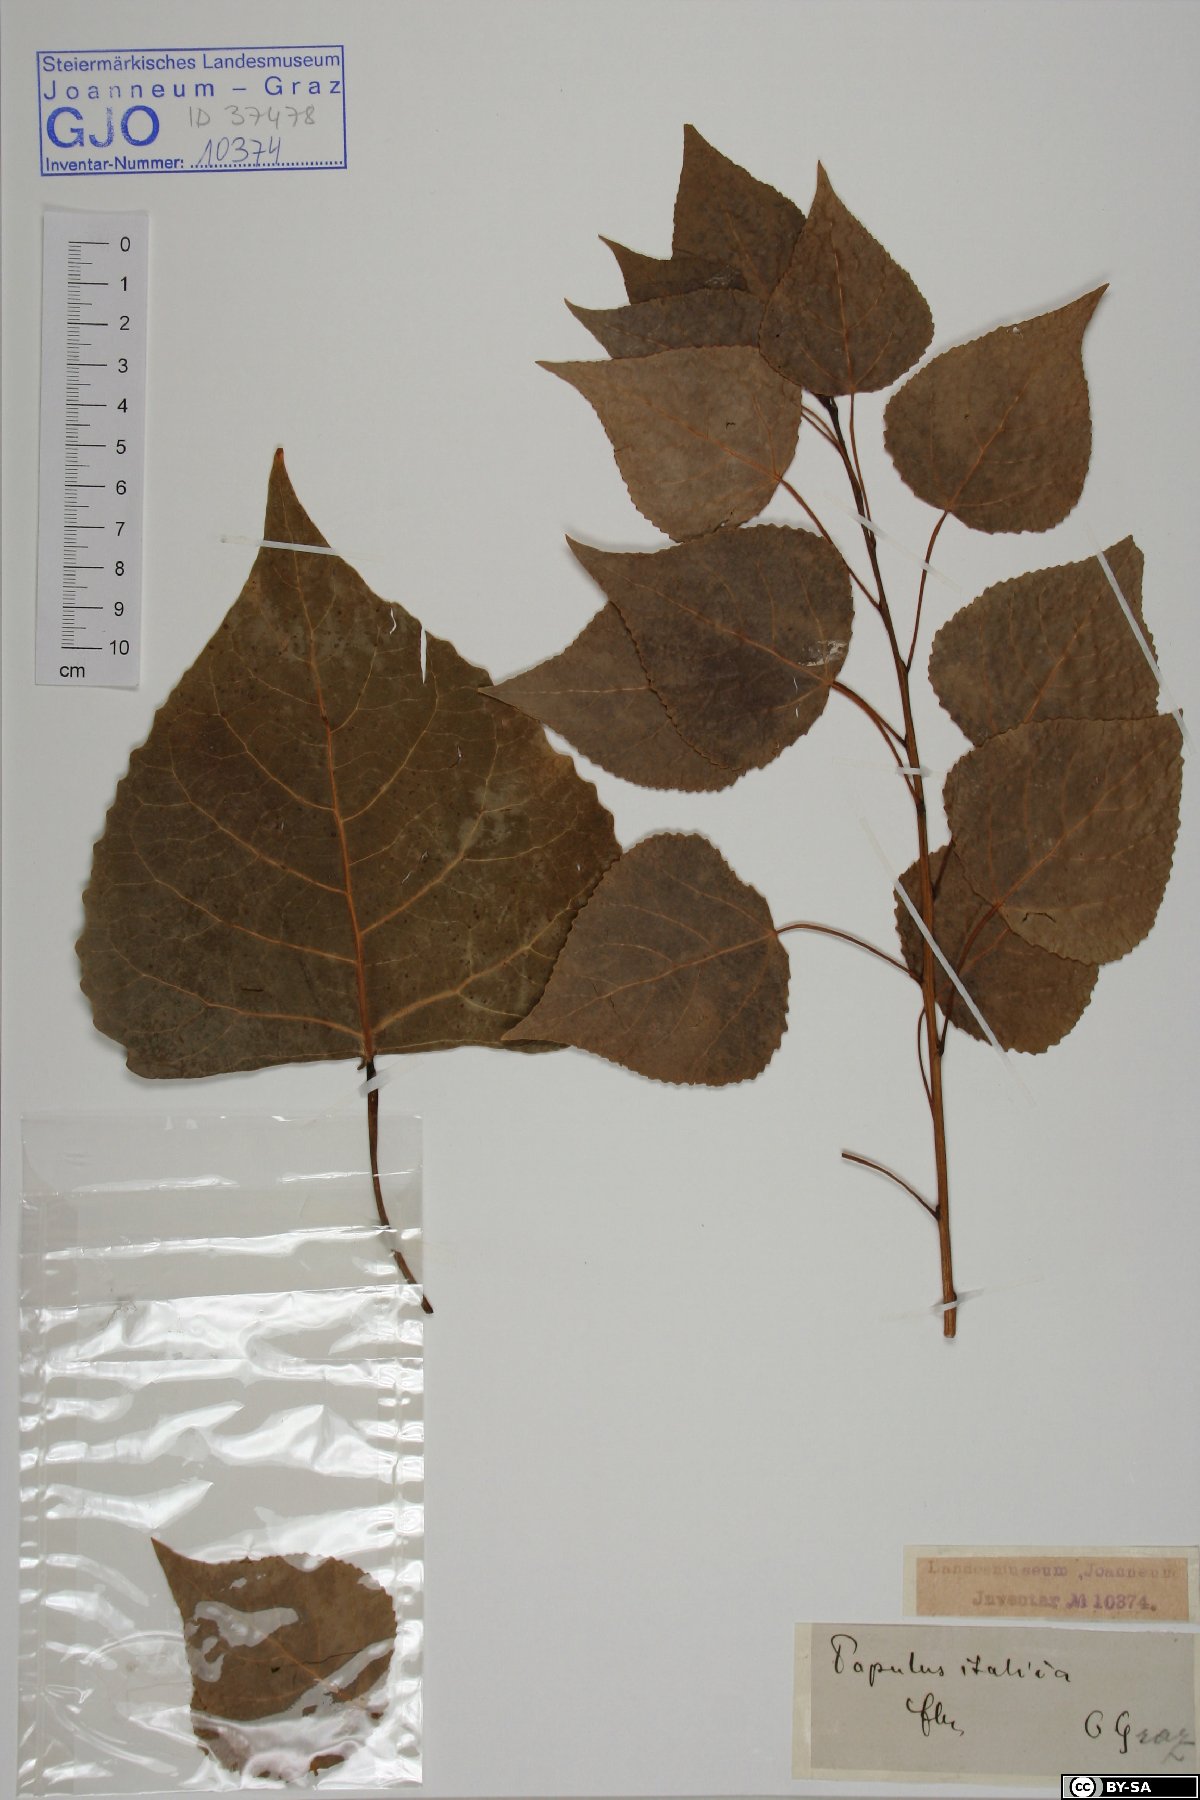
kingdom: Plantae
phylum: Tracheophyta
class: Magnoliopsida
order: Malpighiales
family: Salicaceae
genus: Populus
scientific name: Populus nigra
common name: Black poplar
